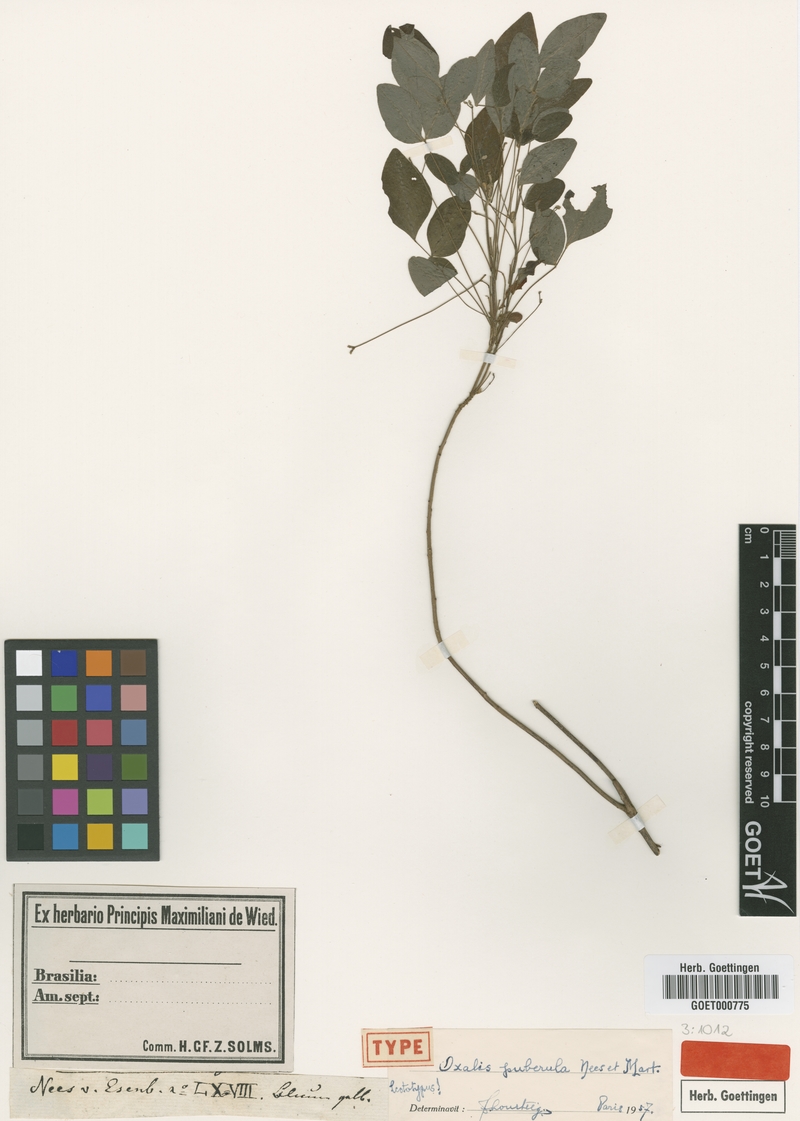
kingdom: Plantae
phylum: Tracheophyta
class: Magnoliopsida
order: Oxalidales
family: Oxalidaceae
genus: Oxalis
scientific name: Oxalis puberula
